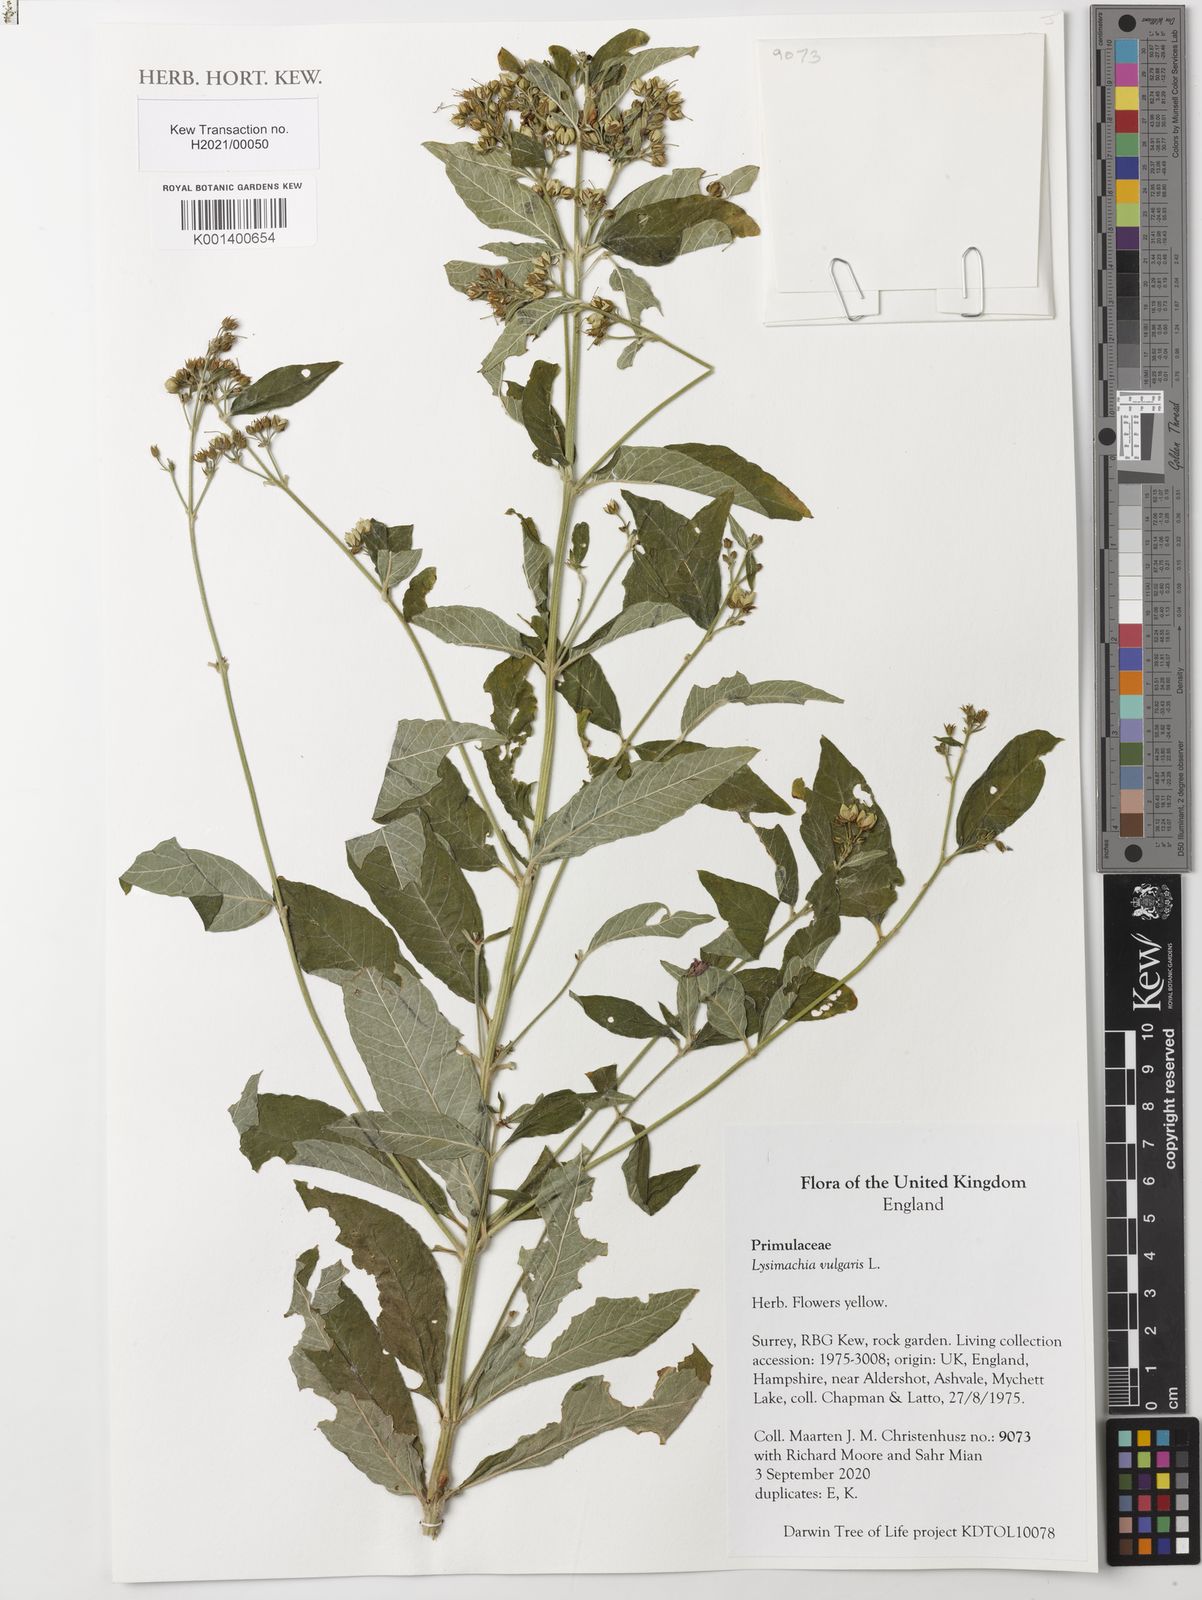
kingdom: Plantae
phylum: Tracheophyta
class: Magnoliopsida
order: Ericales
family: Primulaceae
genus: Lysimachia
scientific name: Lysimachia vulgaris
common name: Yellow loosestrife
